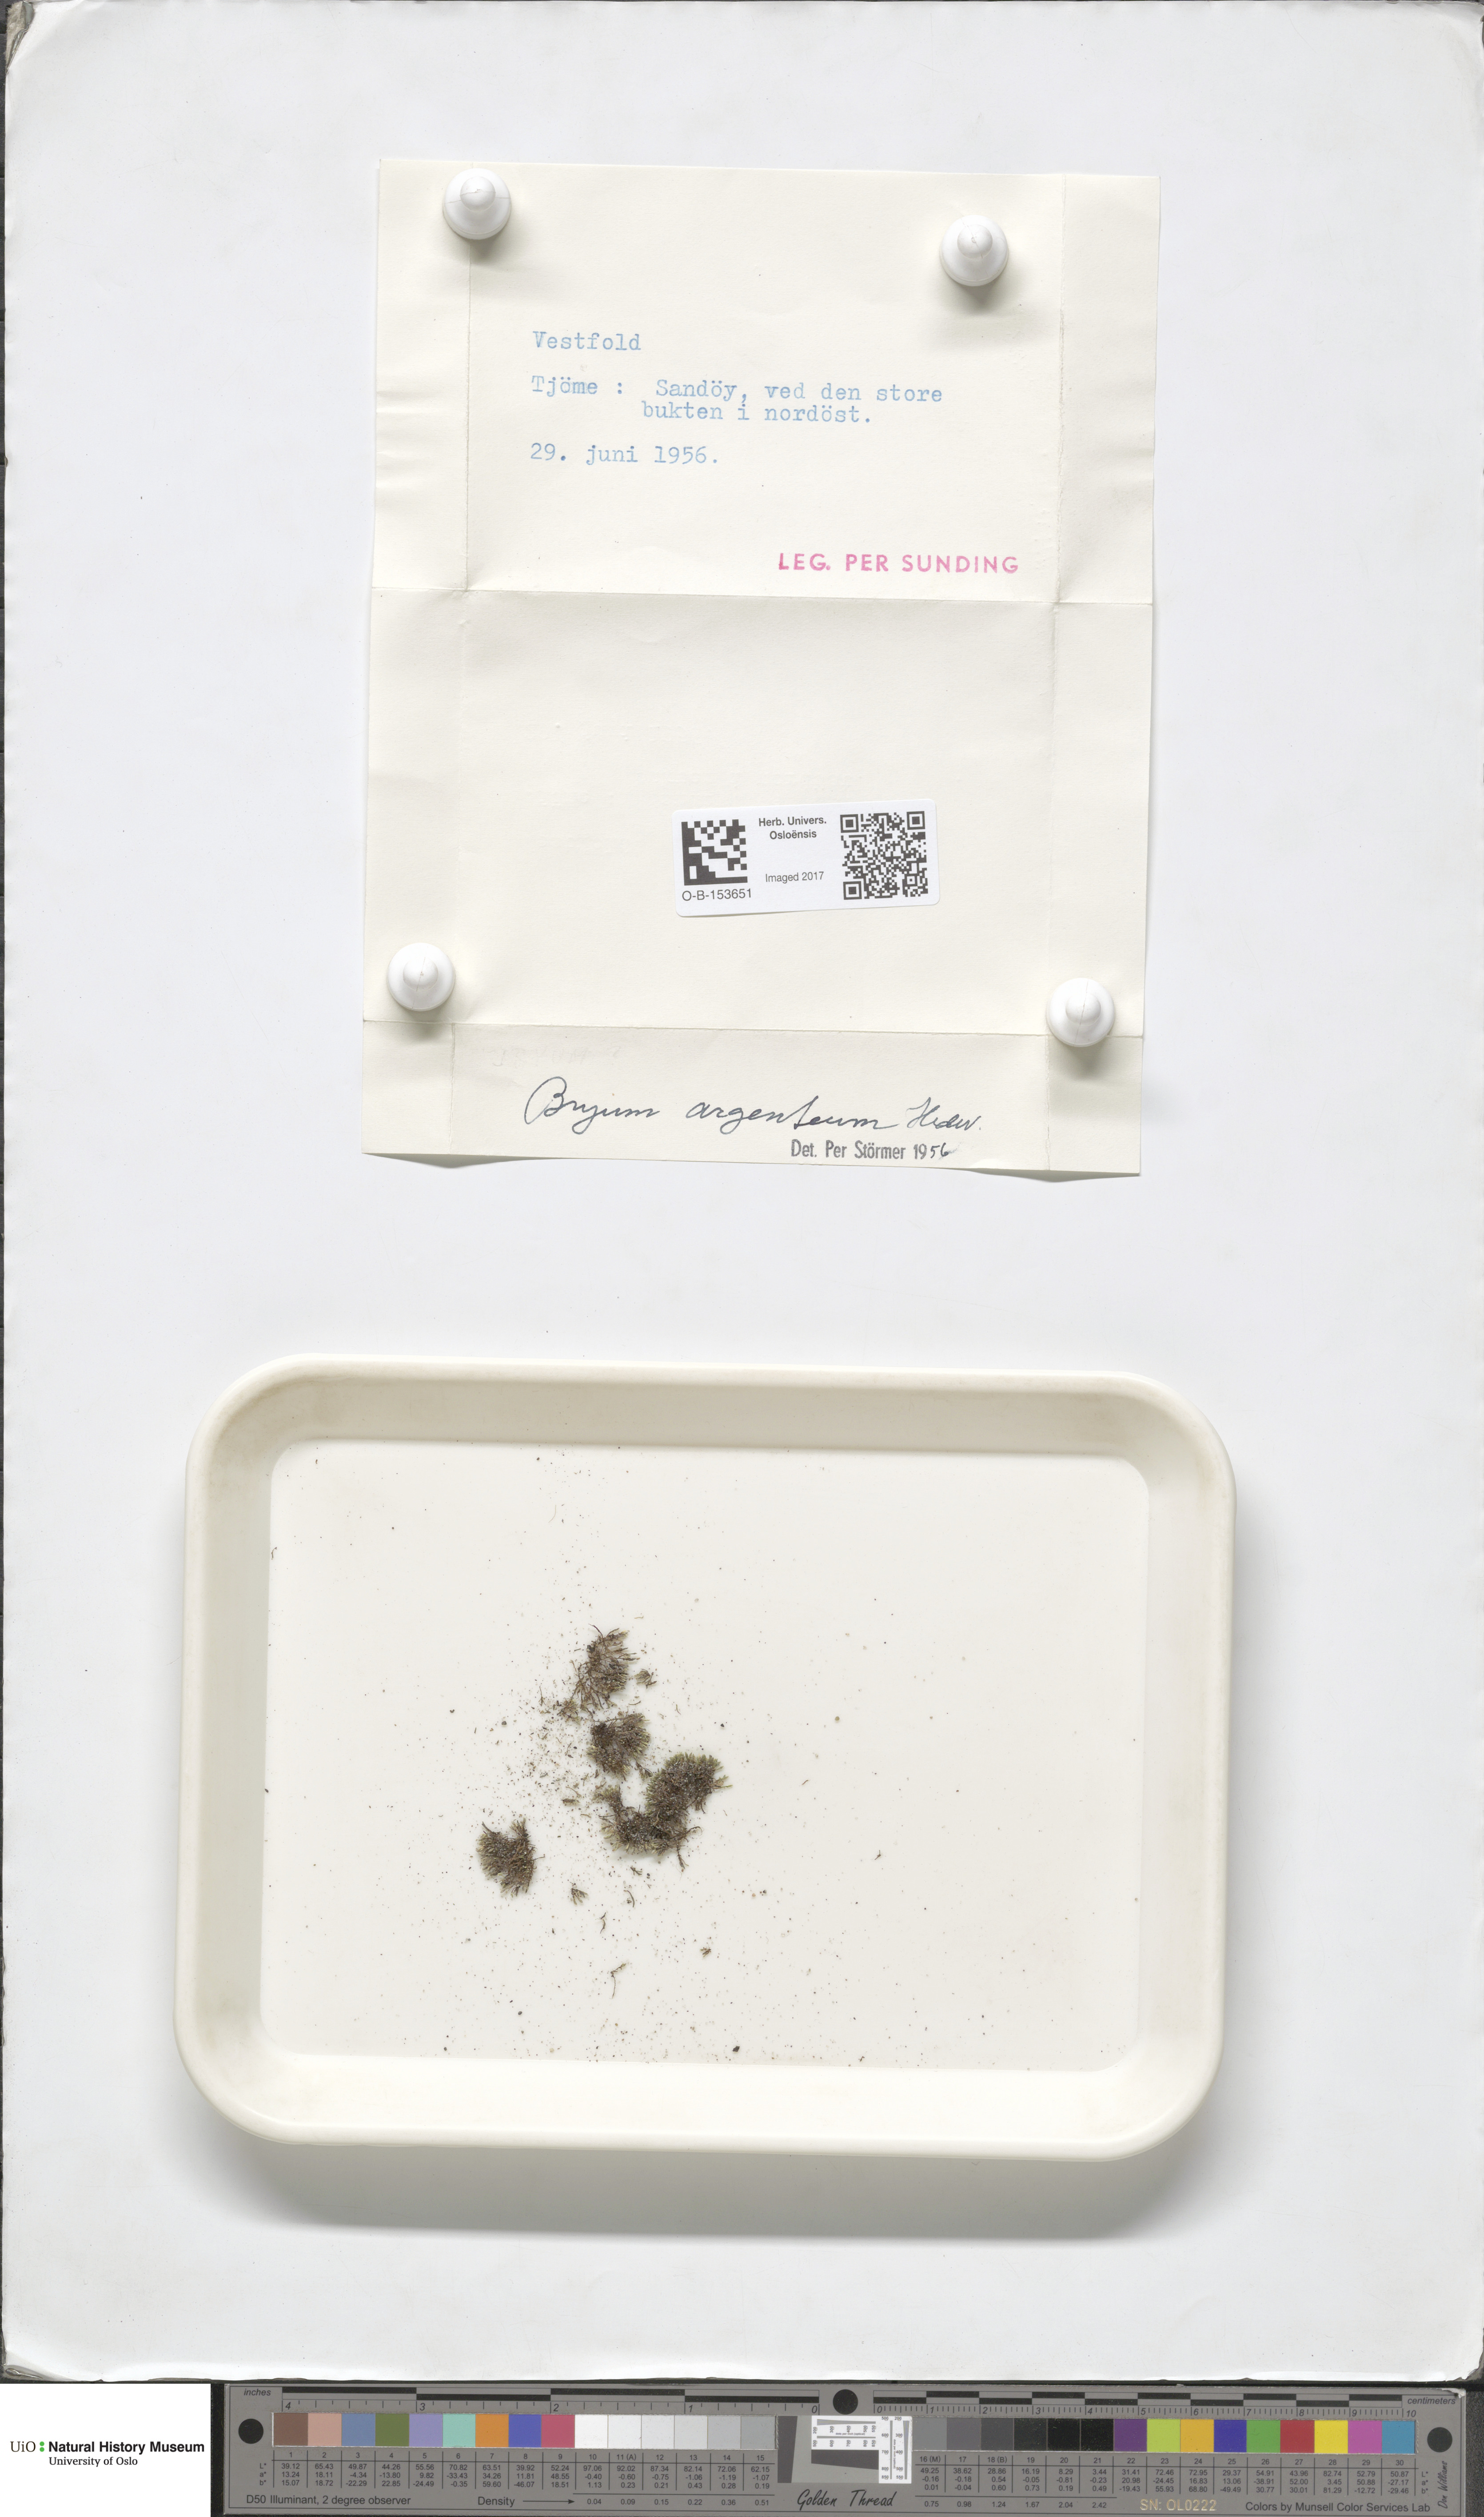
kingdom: Plantae
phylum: Bryophyta
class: Bryopsida
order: Bryales
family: Bryaceae
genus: Bryum
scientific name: Bryum argenteum
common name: Silver-moss
